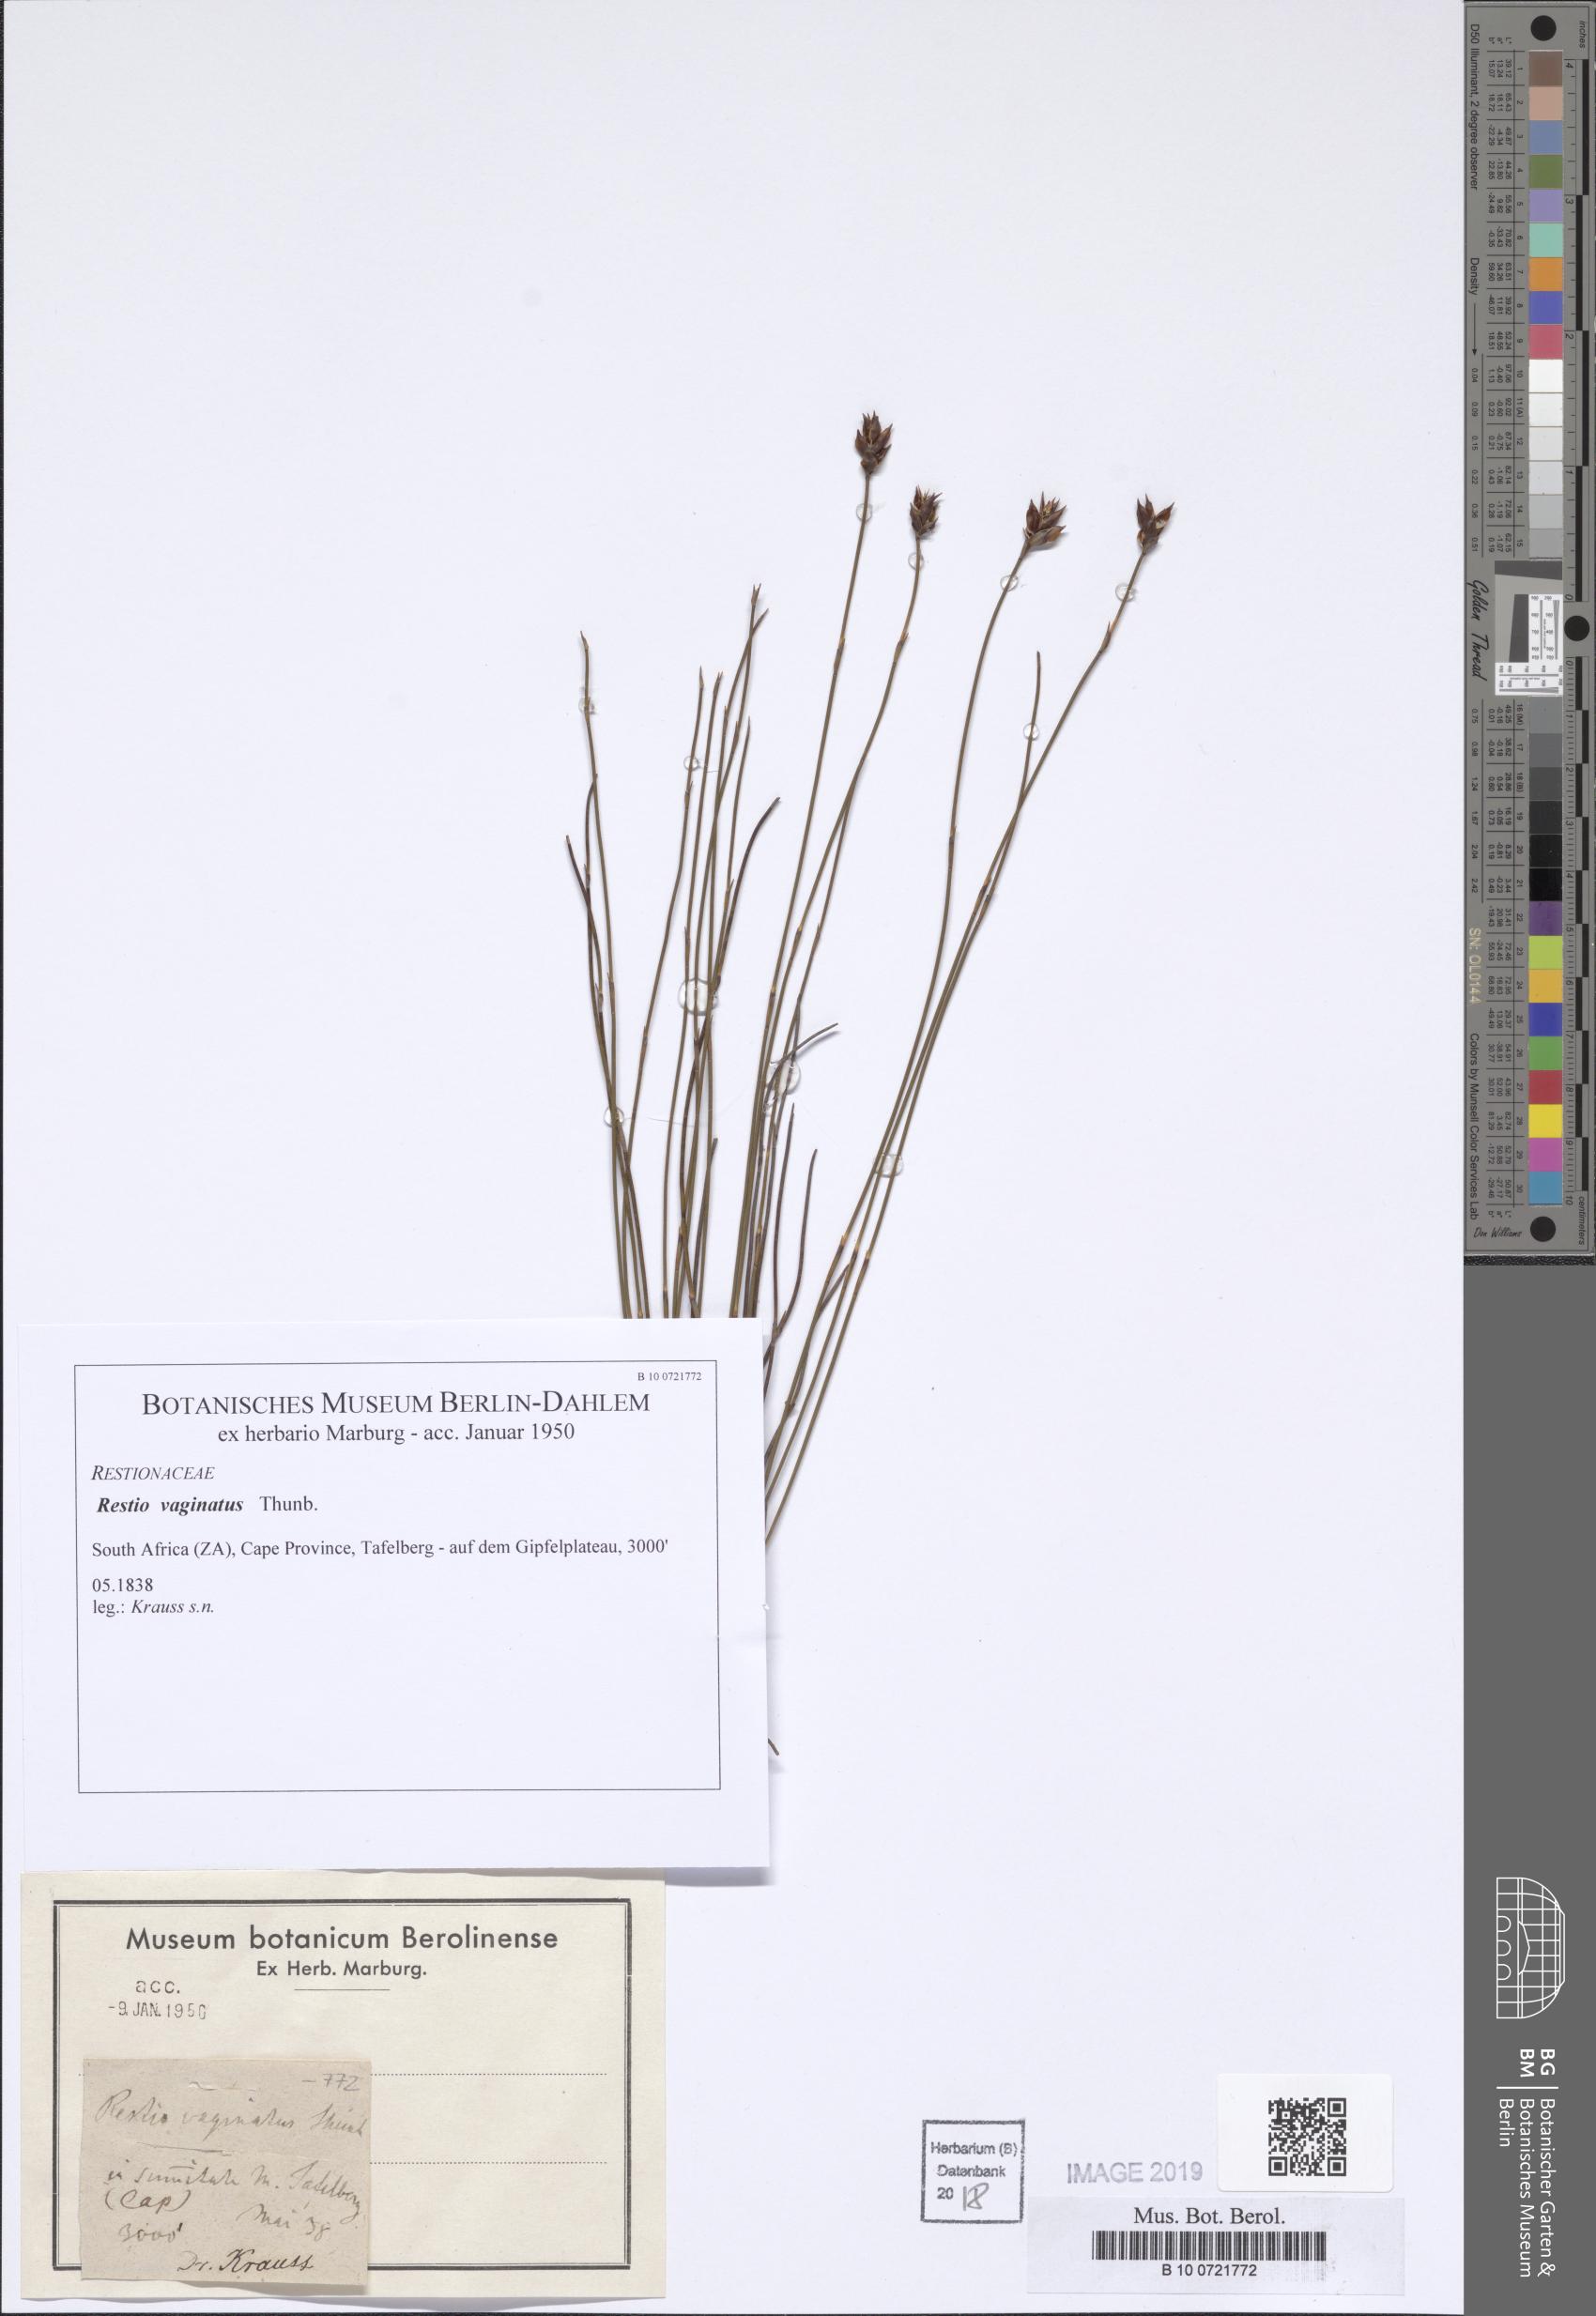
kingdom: Plantae
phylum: Tracheophyta
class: Liliopsida
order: Poales
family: Restionaceae
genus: Staberoha
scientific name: Staberoha vaginata
